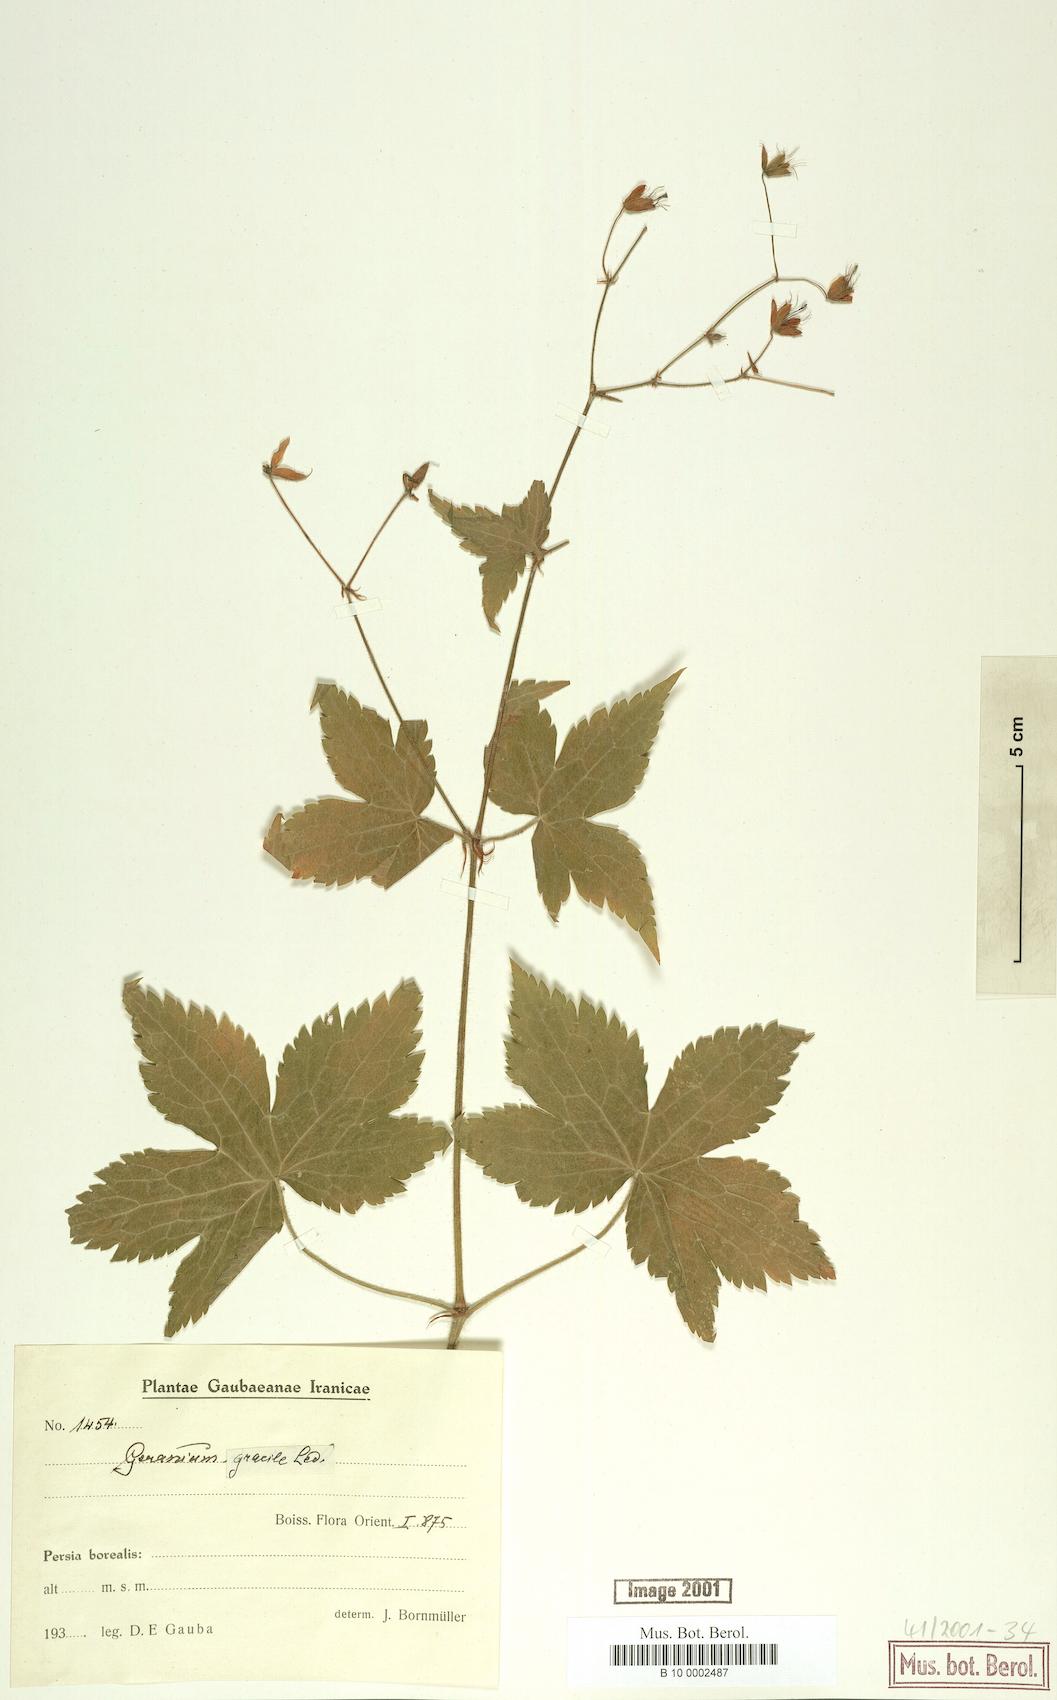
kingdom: Plantae
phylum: Tracheophyta
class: Magnoliopsida
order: Geraniales
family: Geraniaceae
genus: Geranium
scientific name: Geranium gracile
